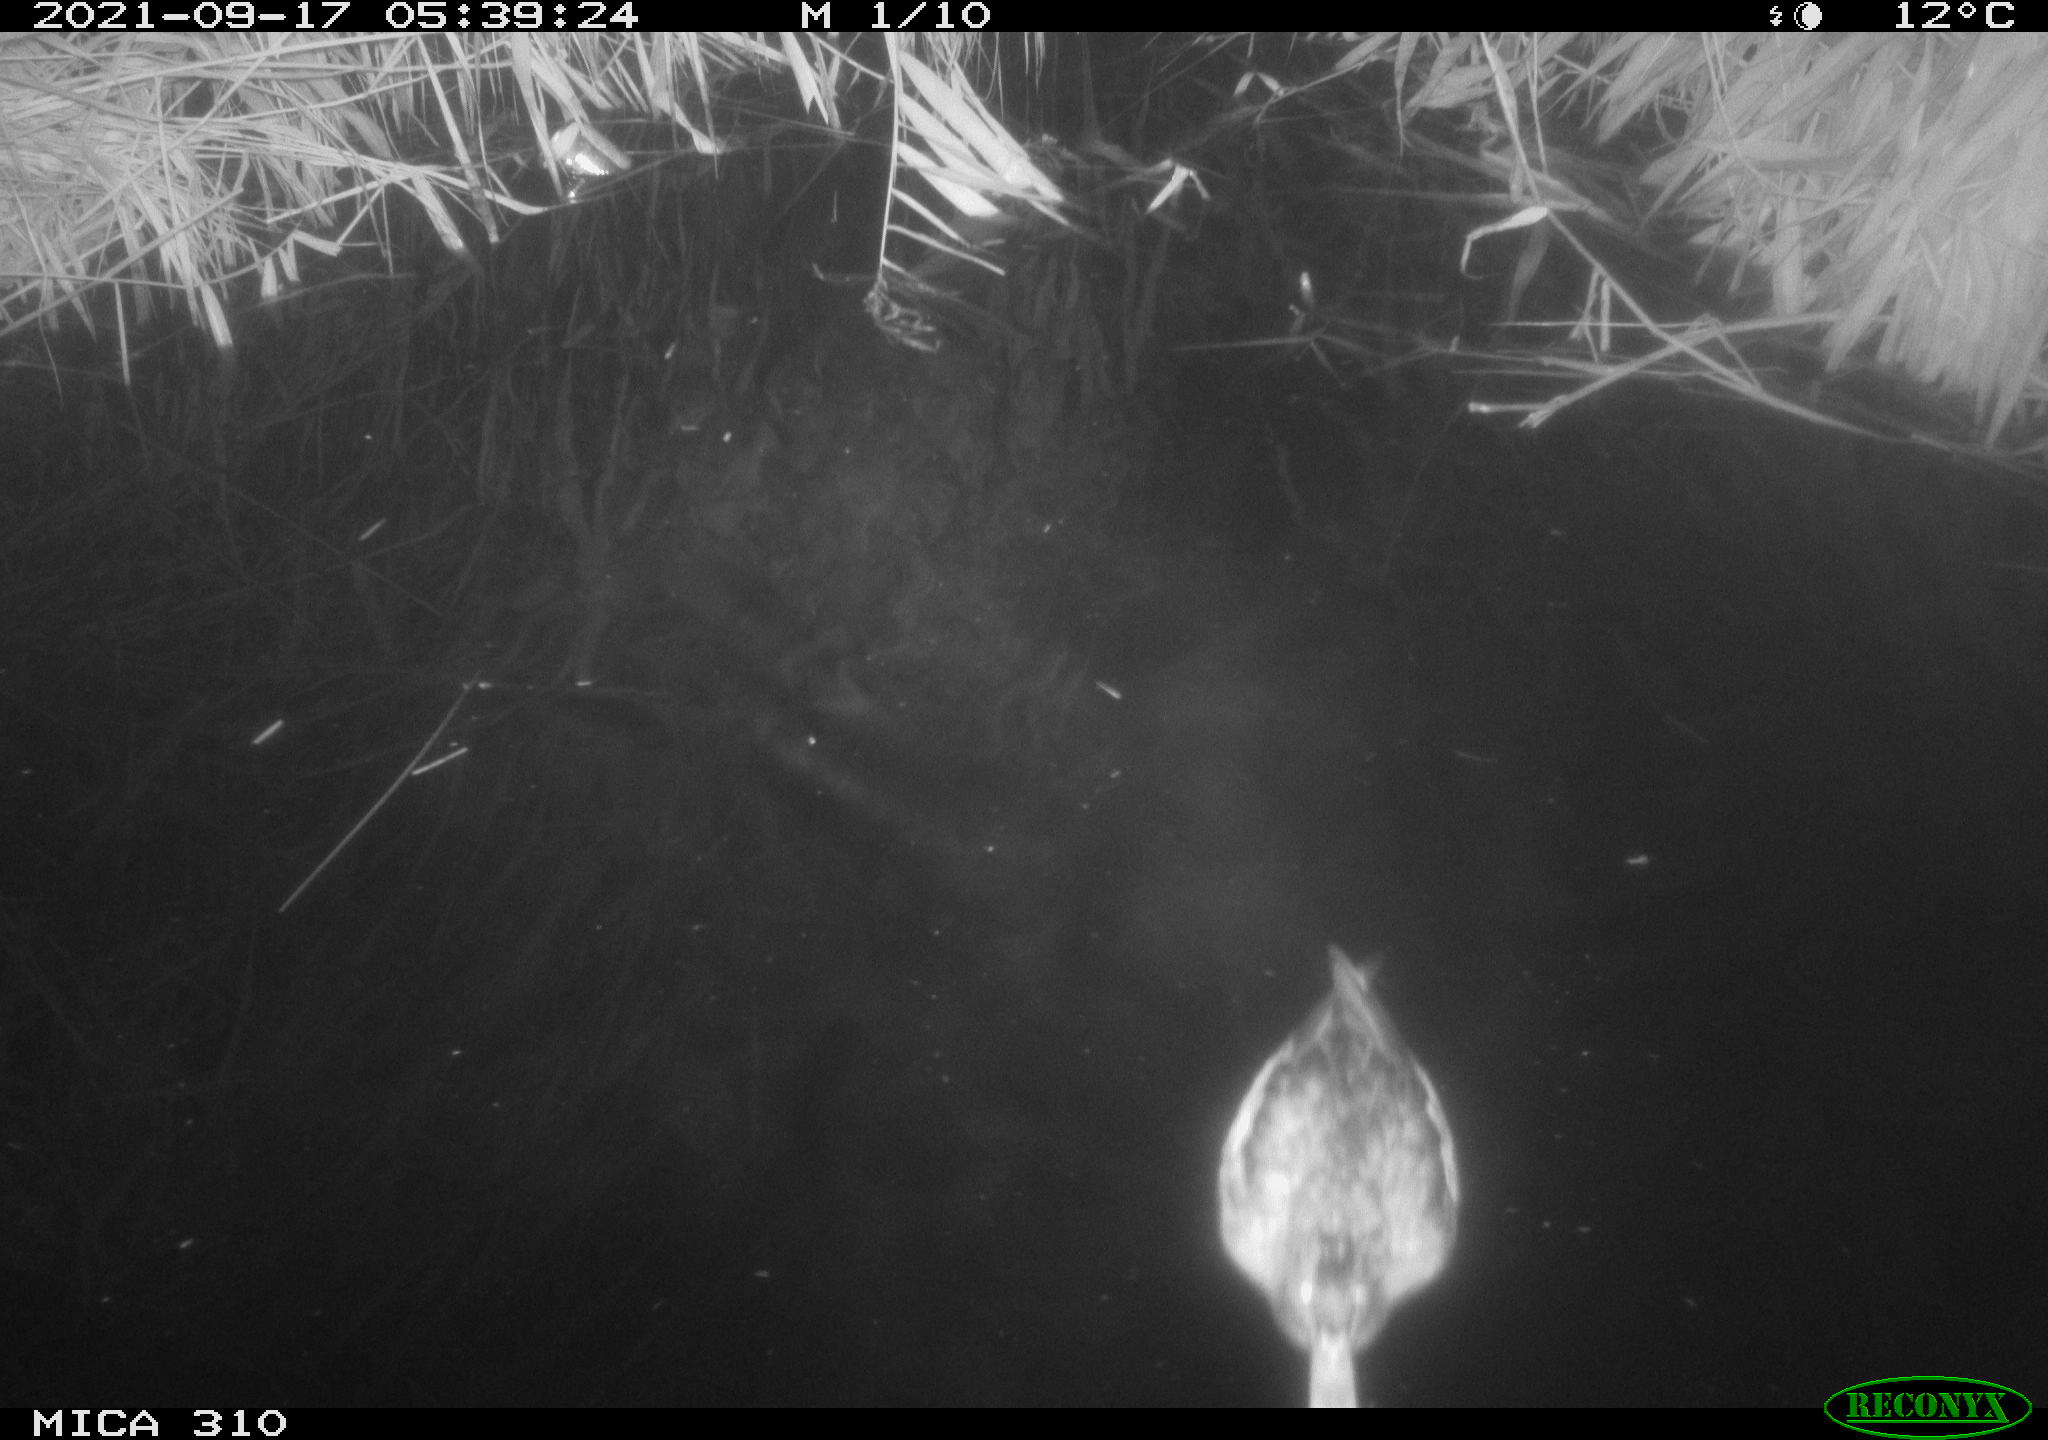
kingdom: Animalia
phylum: Chordata
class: Aves
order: Anseriformes
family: Anatidae
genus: Mareca
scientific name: Mareca strepera
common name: Gadwall
